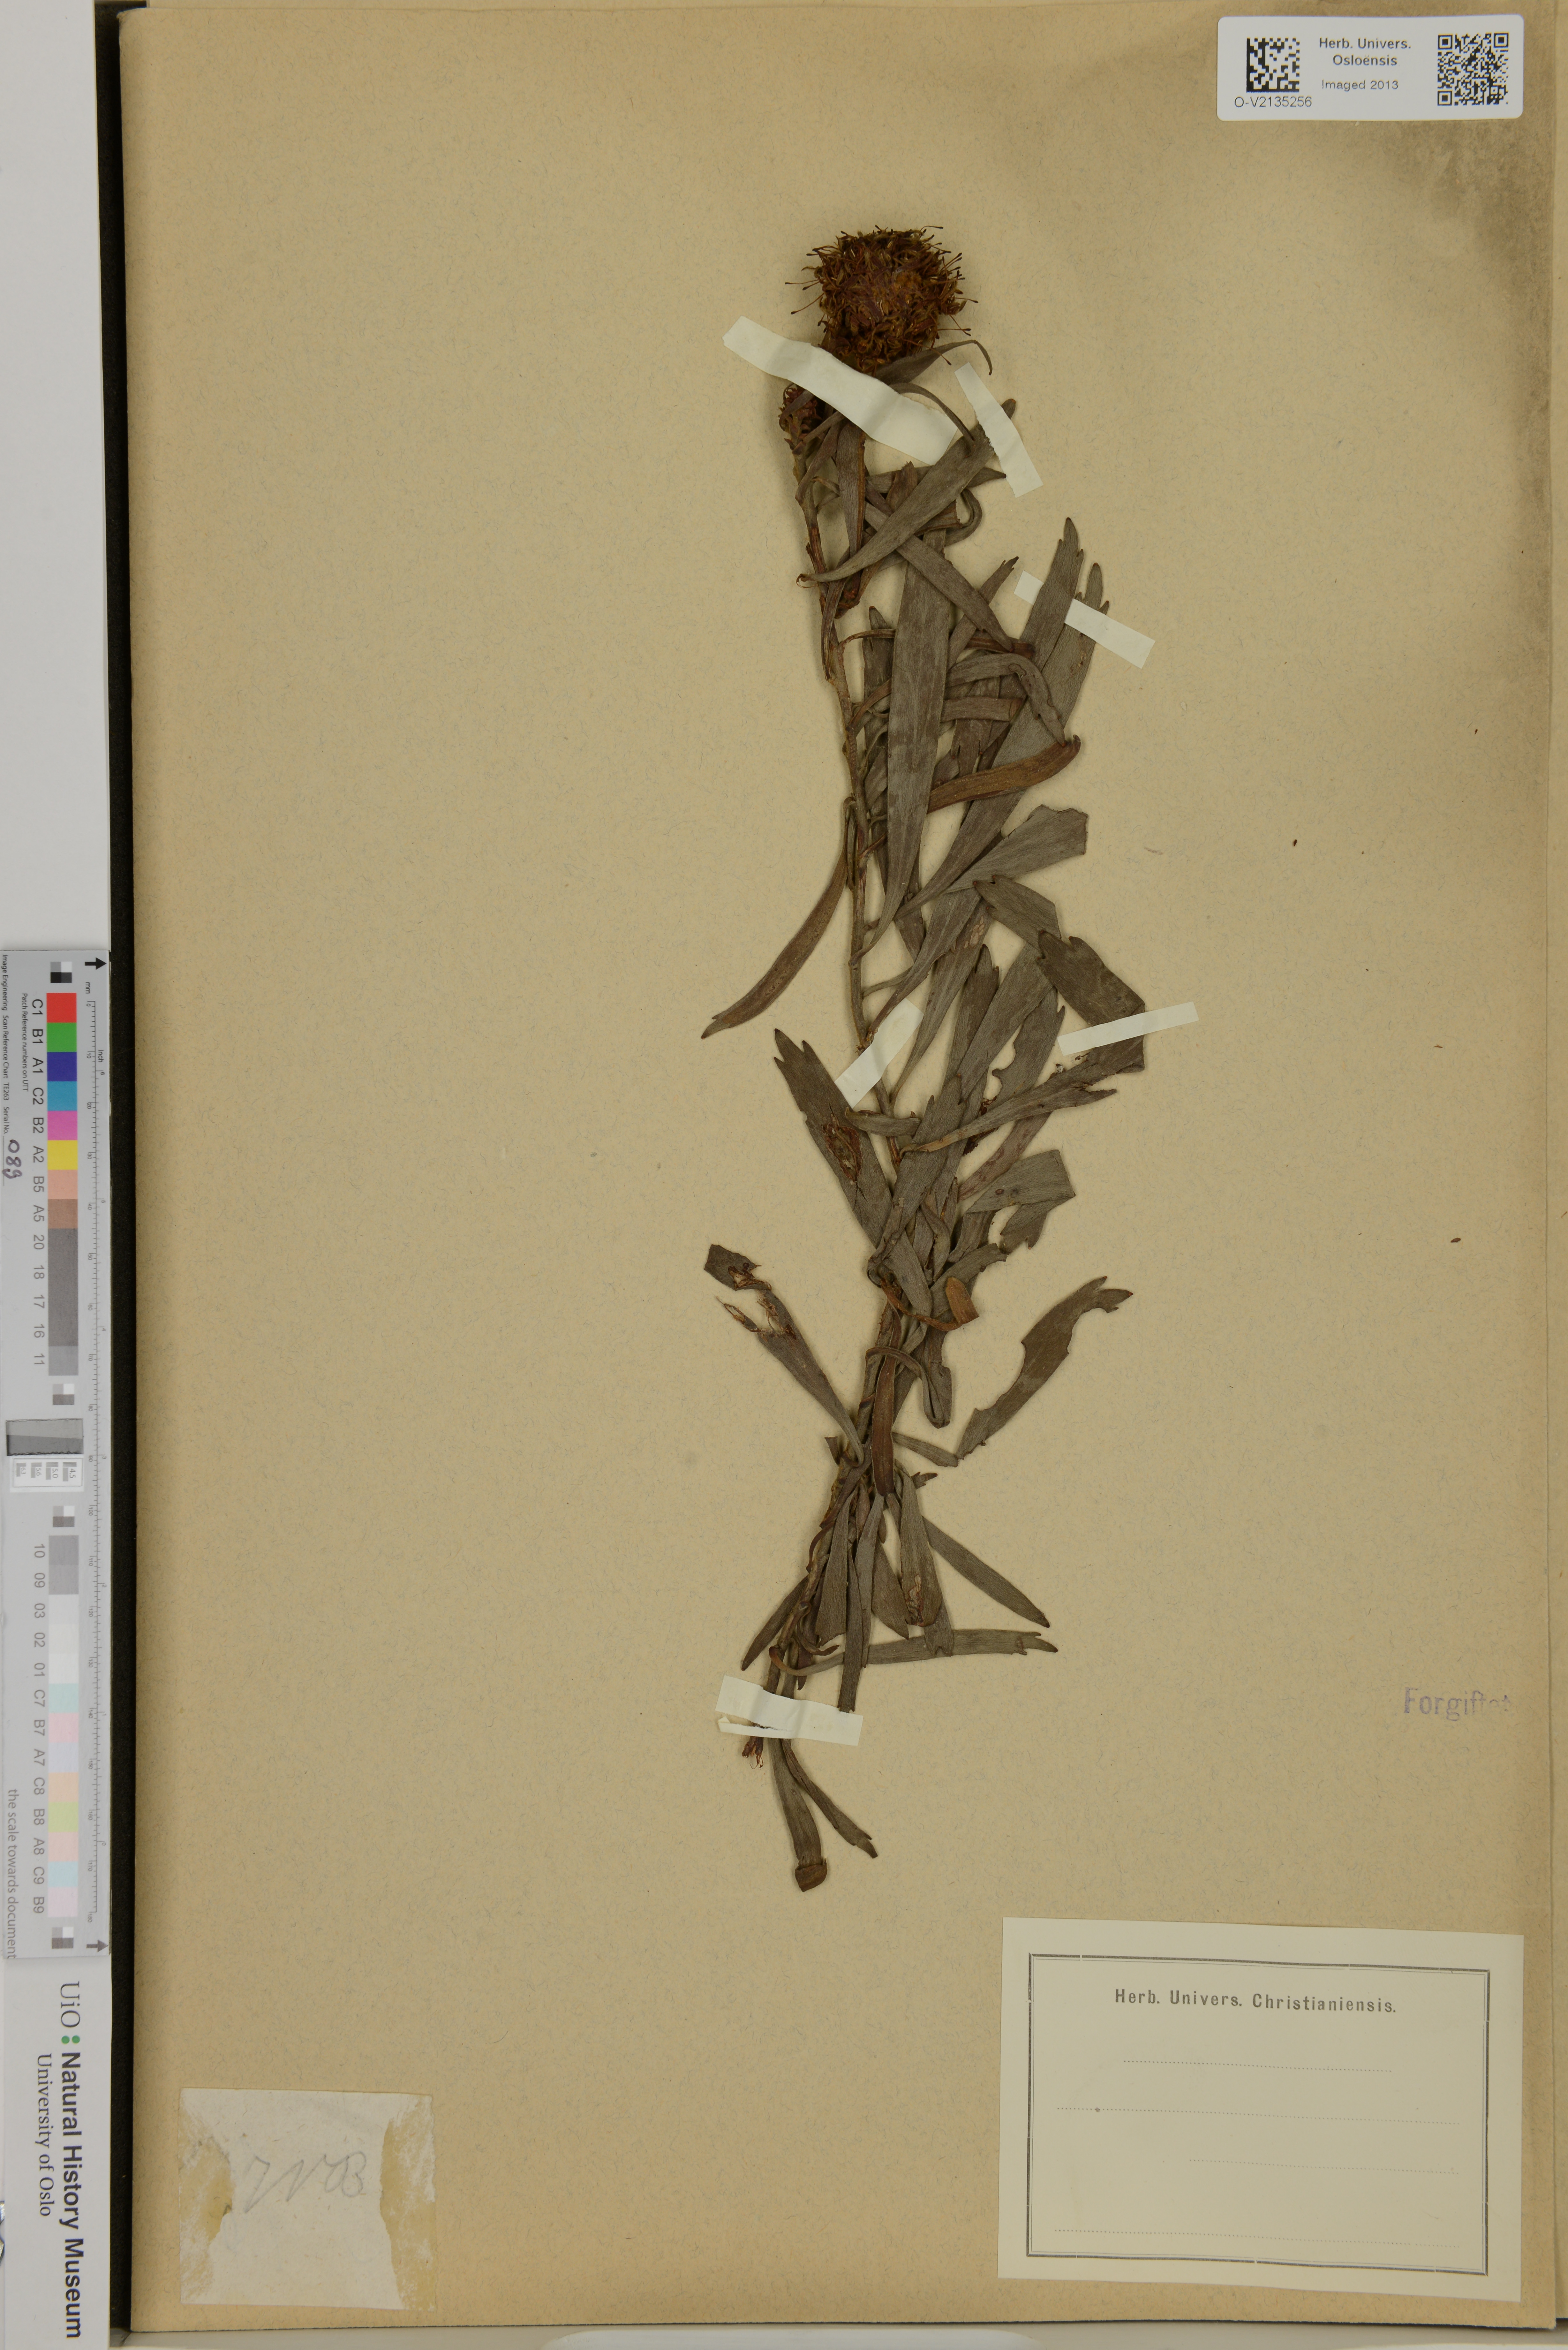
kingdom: Plantae
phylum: Tracheophyta
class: Magnoliopsida
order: Proteales
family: Proteaceae
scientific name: Proteaceae
